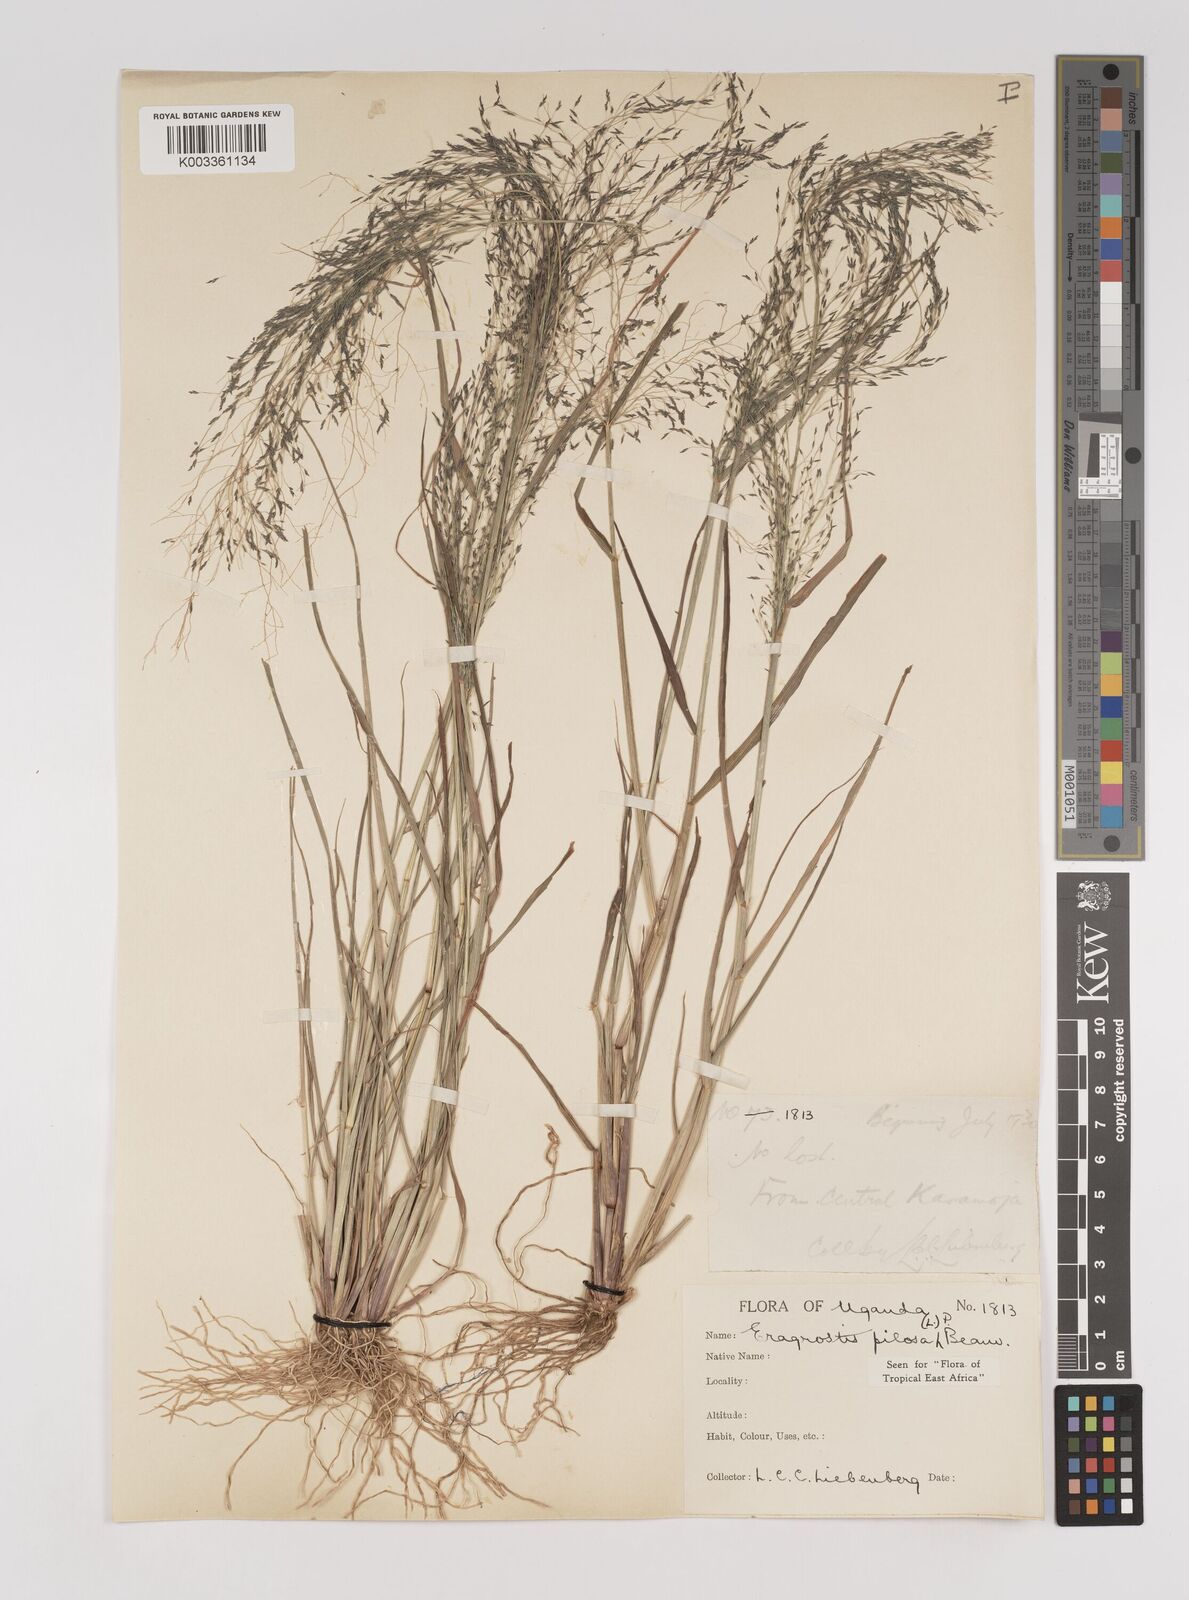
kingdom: Plantae
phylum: Tracheophyta
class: Liliopsida
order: Poales
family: Poaceae
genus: Eragrostis
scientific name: Eragrostis pilosa
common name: Indian lovegrass
